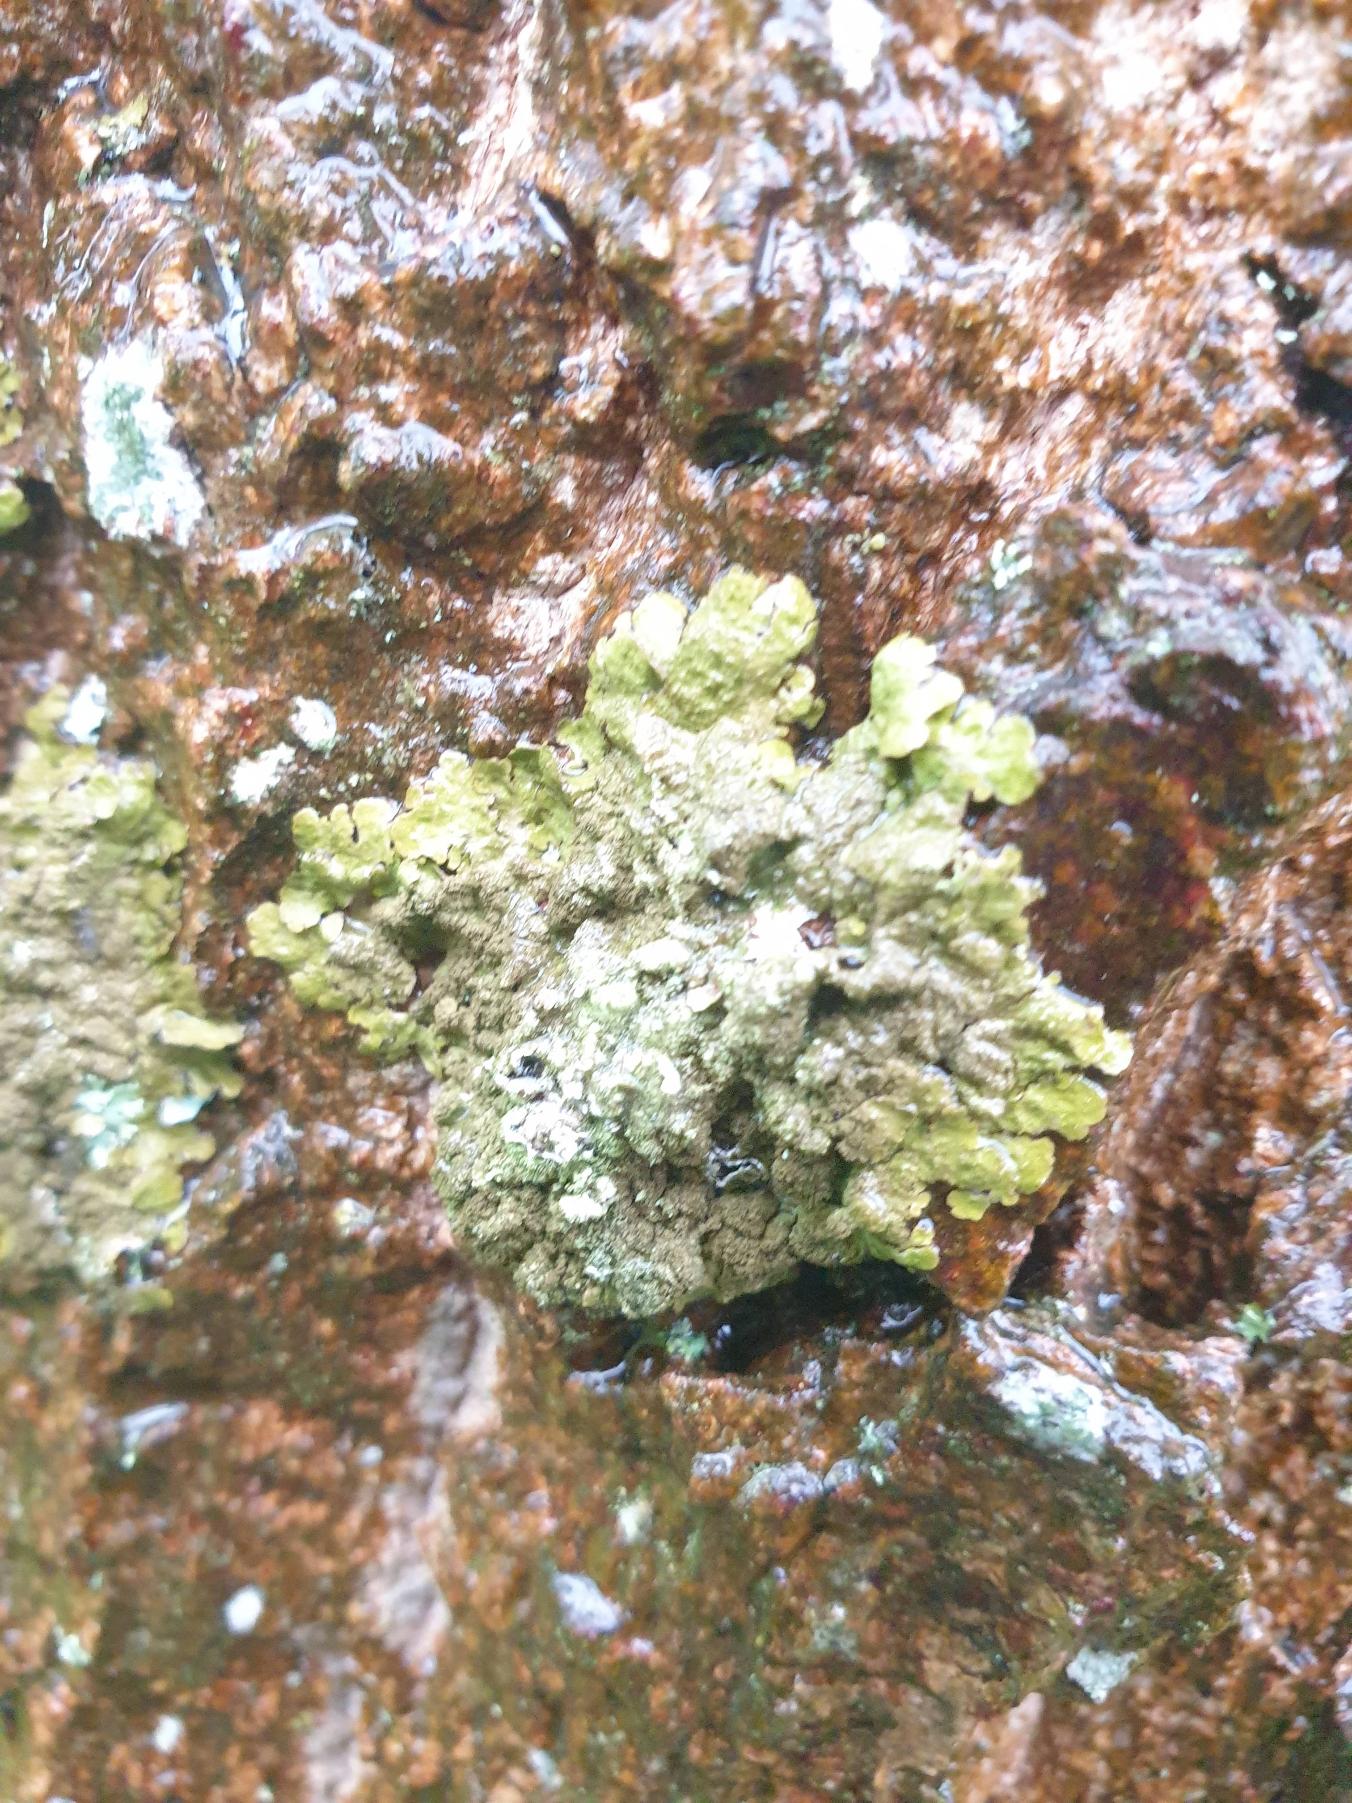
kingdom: Fungi
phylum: Ascomycota
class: Lecanoromycetes
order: Lecanorales
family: Parmeliaceae
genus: Melanelixia
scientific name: Melanelixia
